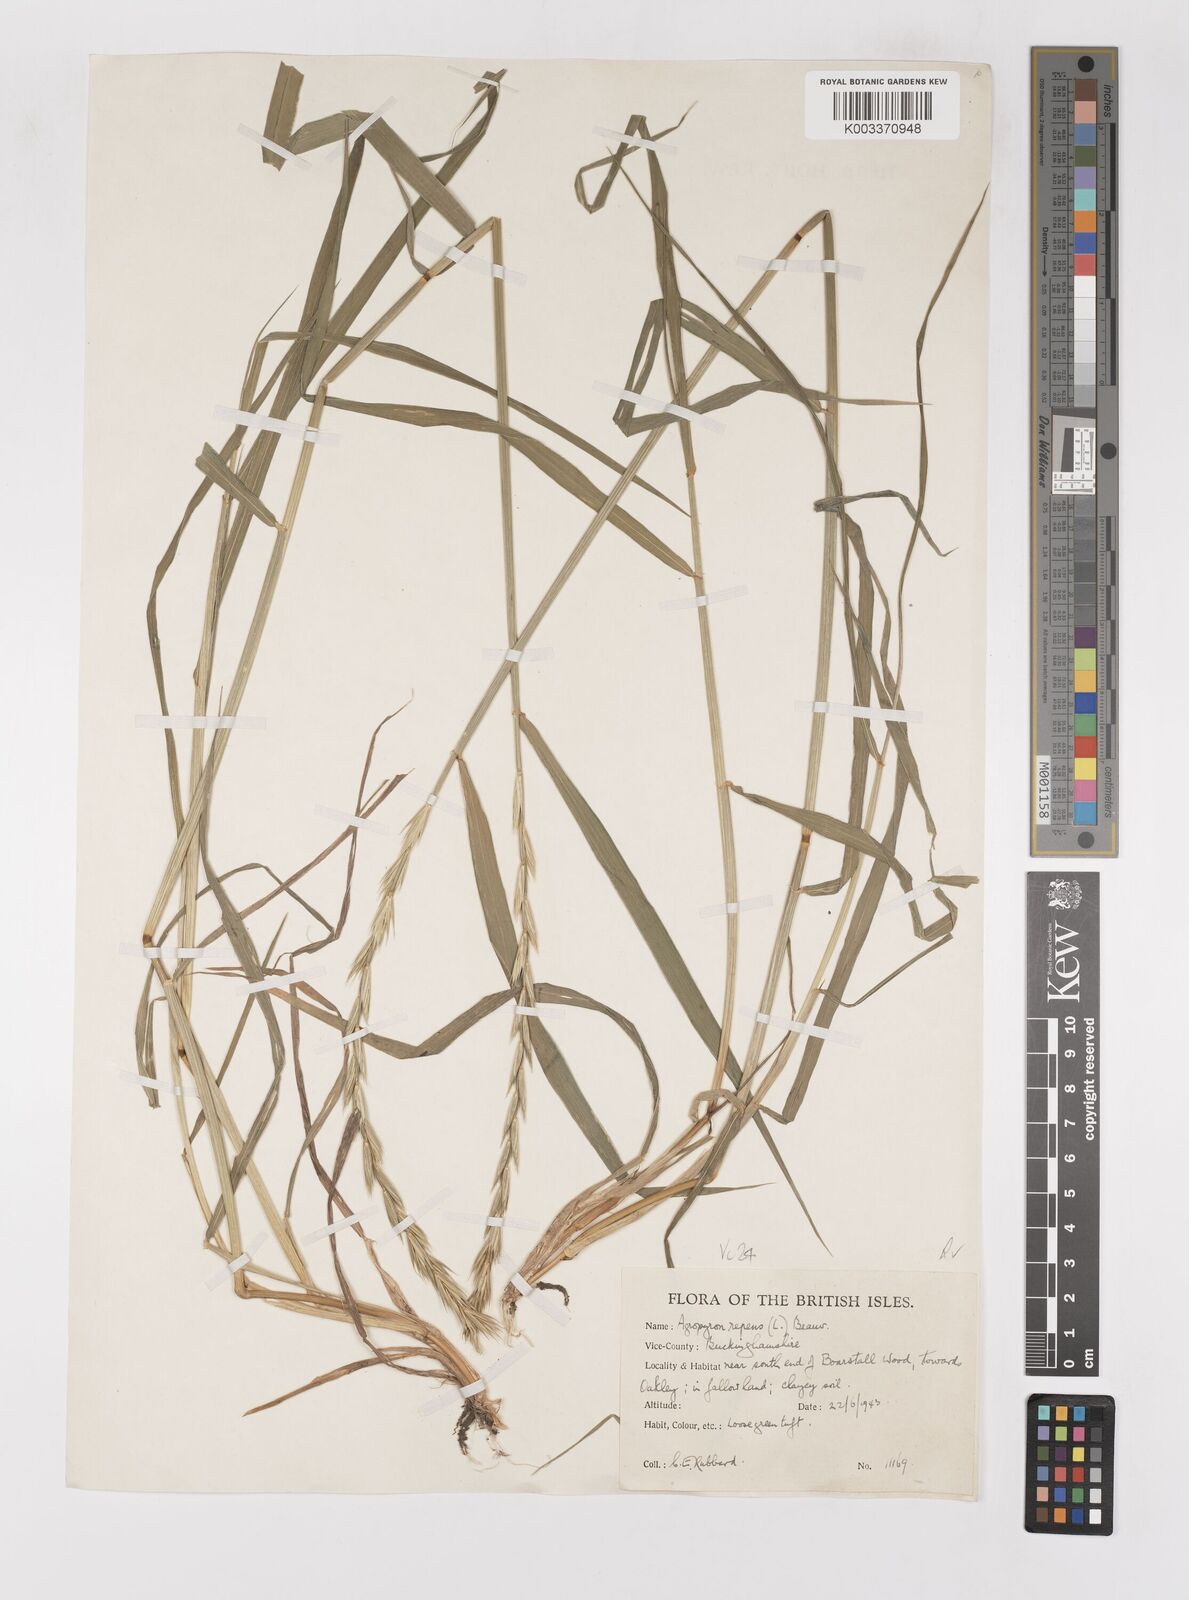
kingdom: Plantae
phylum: Tracheophyta
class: Liliopsida
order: Poales
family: Poaceae
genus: Elymus
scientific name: Elymus repens
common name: Quackgrass
